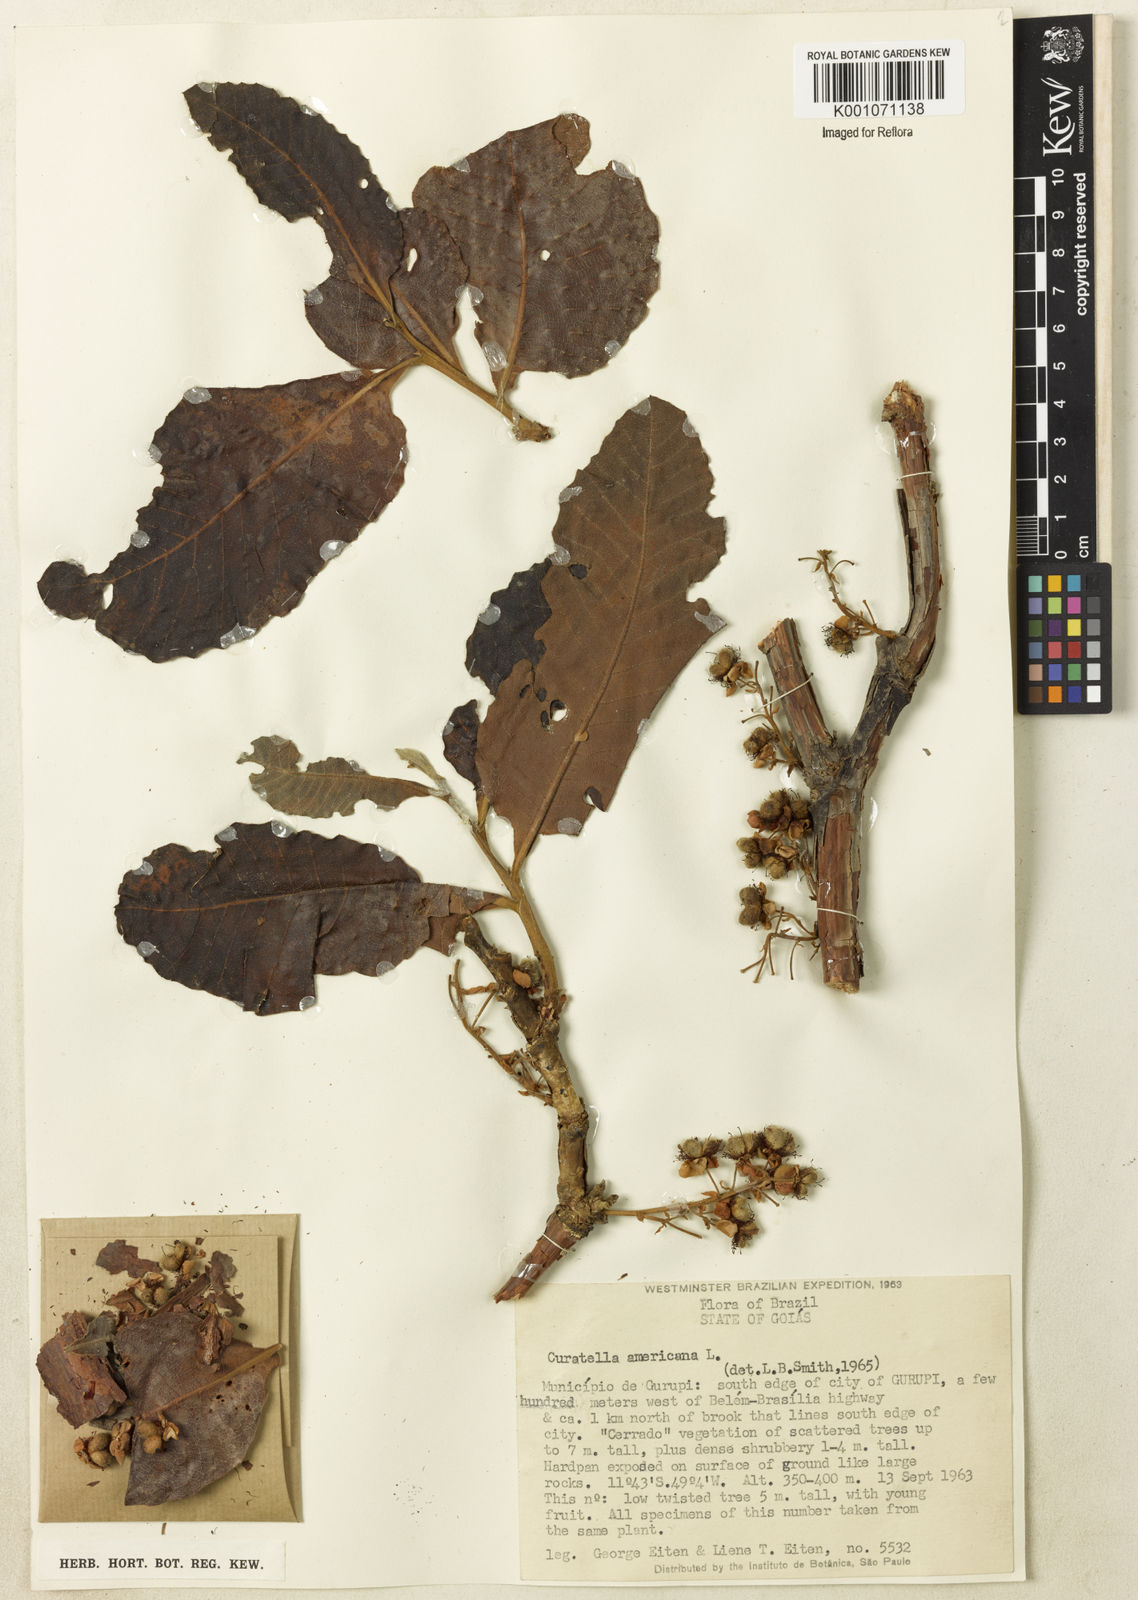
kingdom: Plantae
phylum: Tracheophyta
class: Magnoliopsida
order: Dilleniales
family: Dilleniaceae
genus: Curatella
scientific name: Curatella americana
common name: Sandpaper tree
